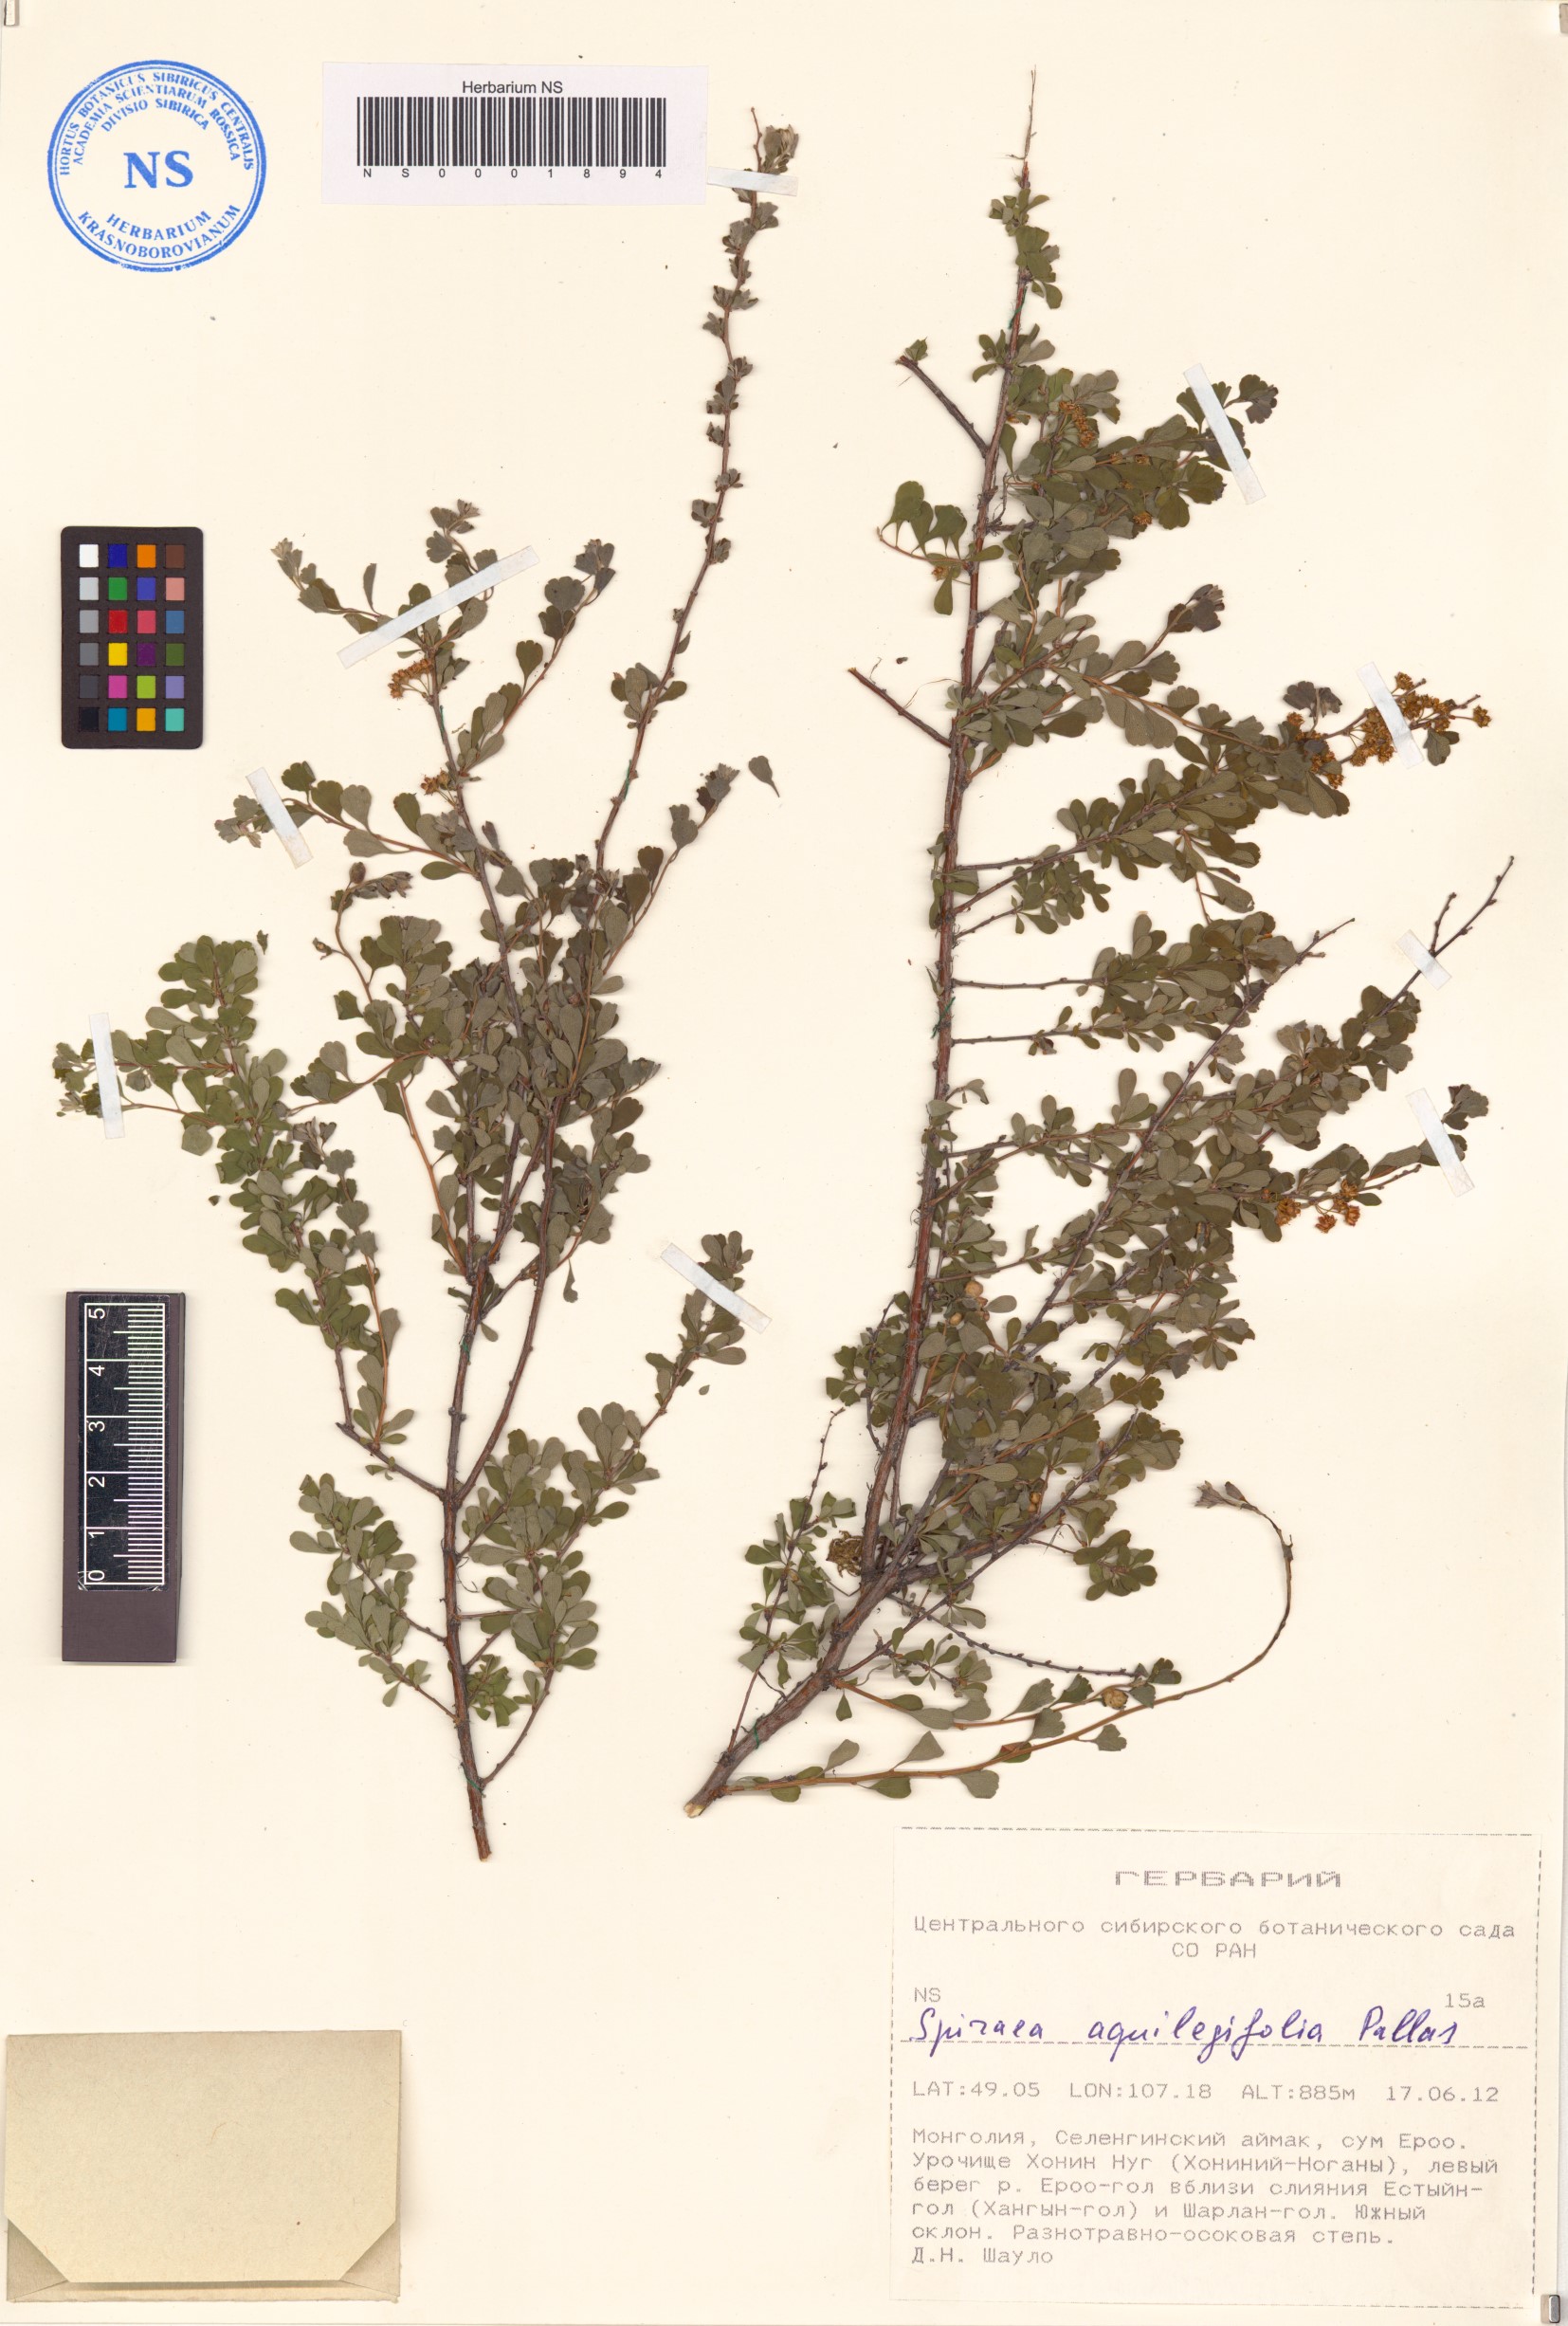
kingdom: Plantae
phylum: Tracheophyta
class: Magnoliopsida
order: Rosales
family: Rosaceae
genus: Spiraea
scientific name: Spiraea aquilegifolia
